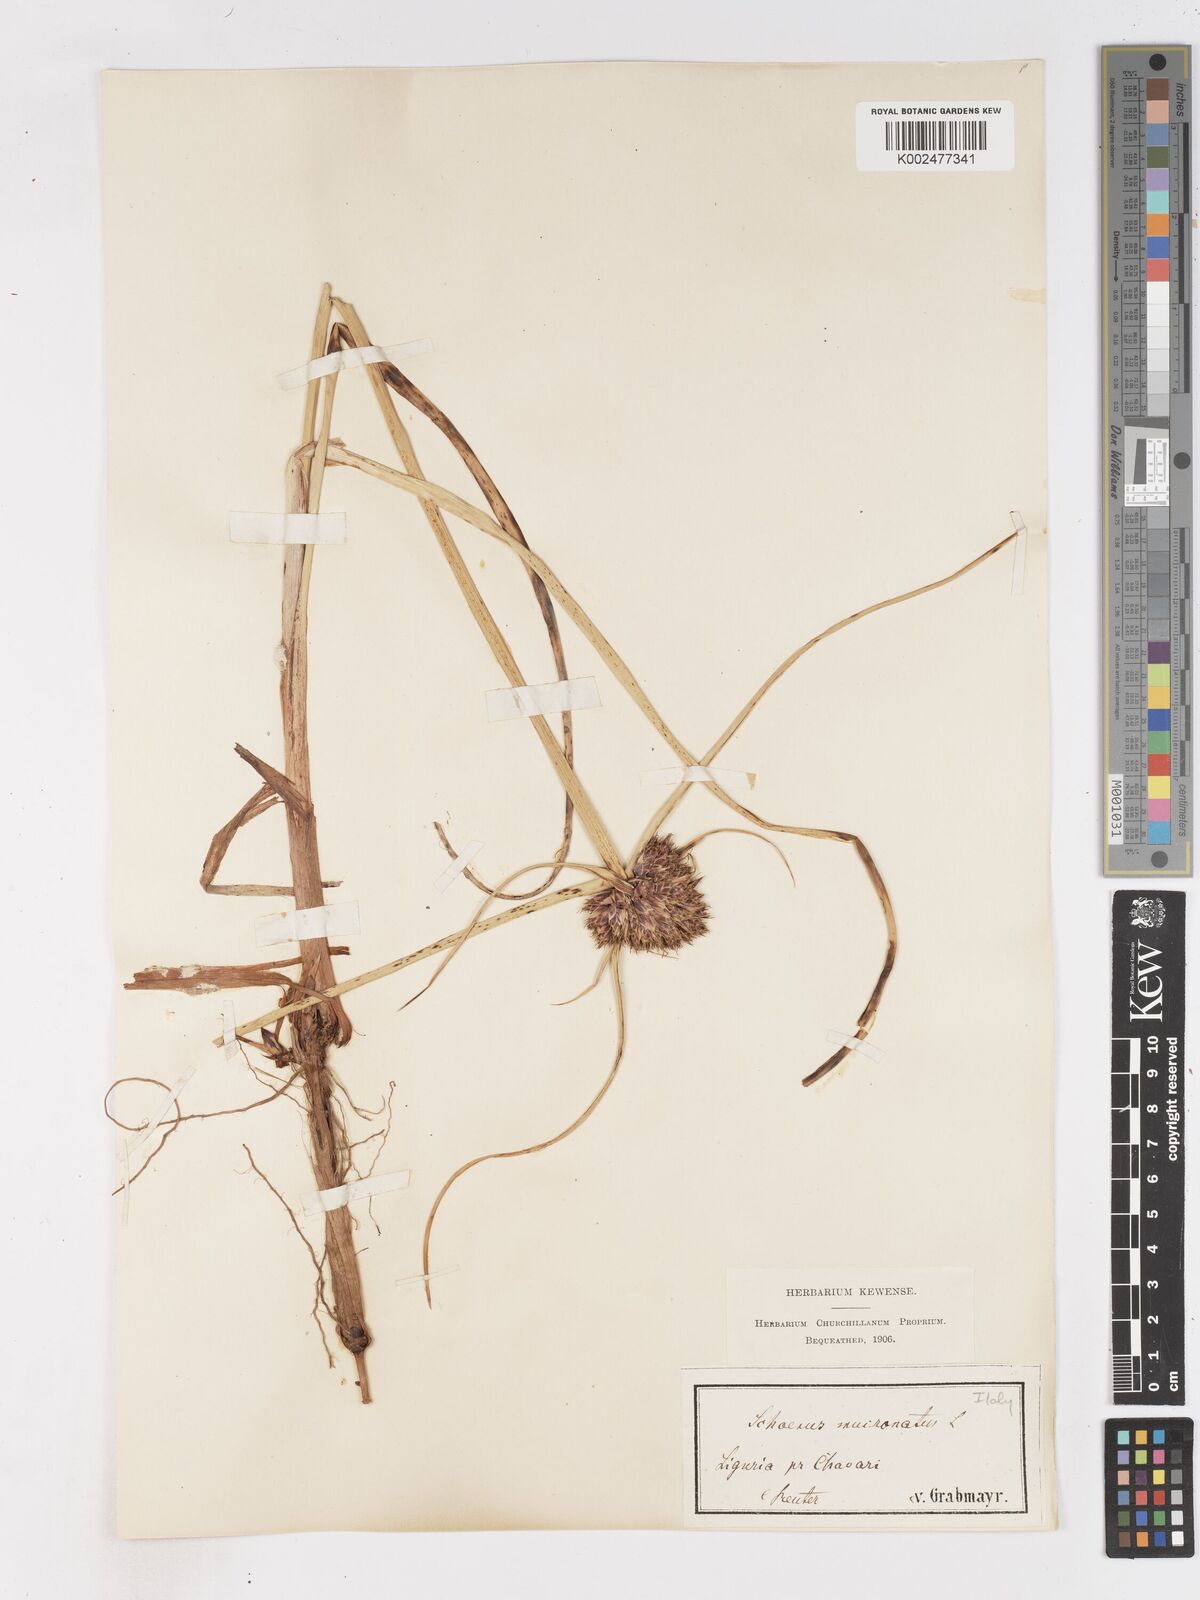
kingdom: Plantae
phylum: Tracheophyta
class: Liliopsida
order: Poales
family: Cyperaceae
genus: Cyperus
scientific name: Cyperus capitatus
